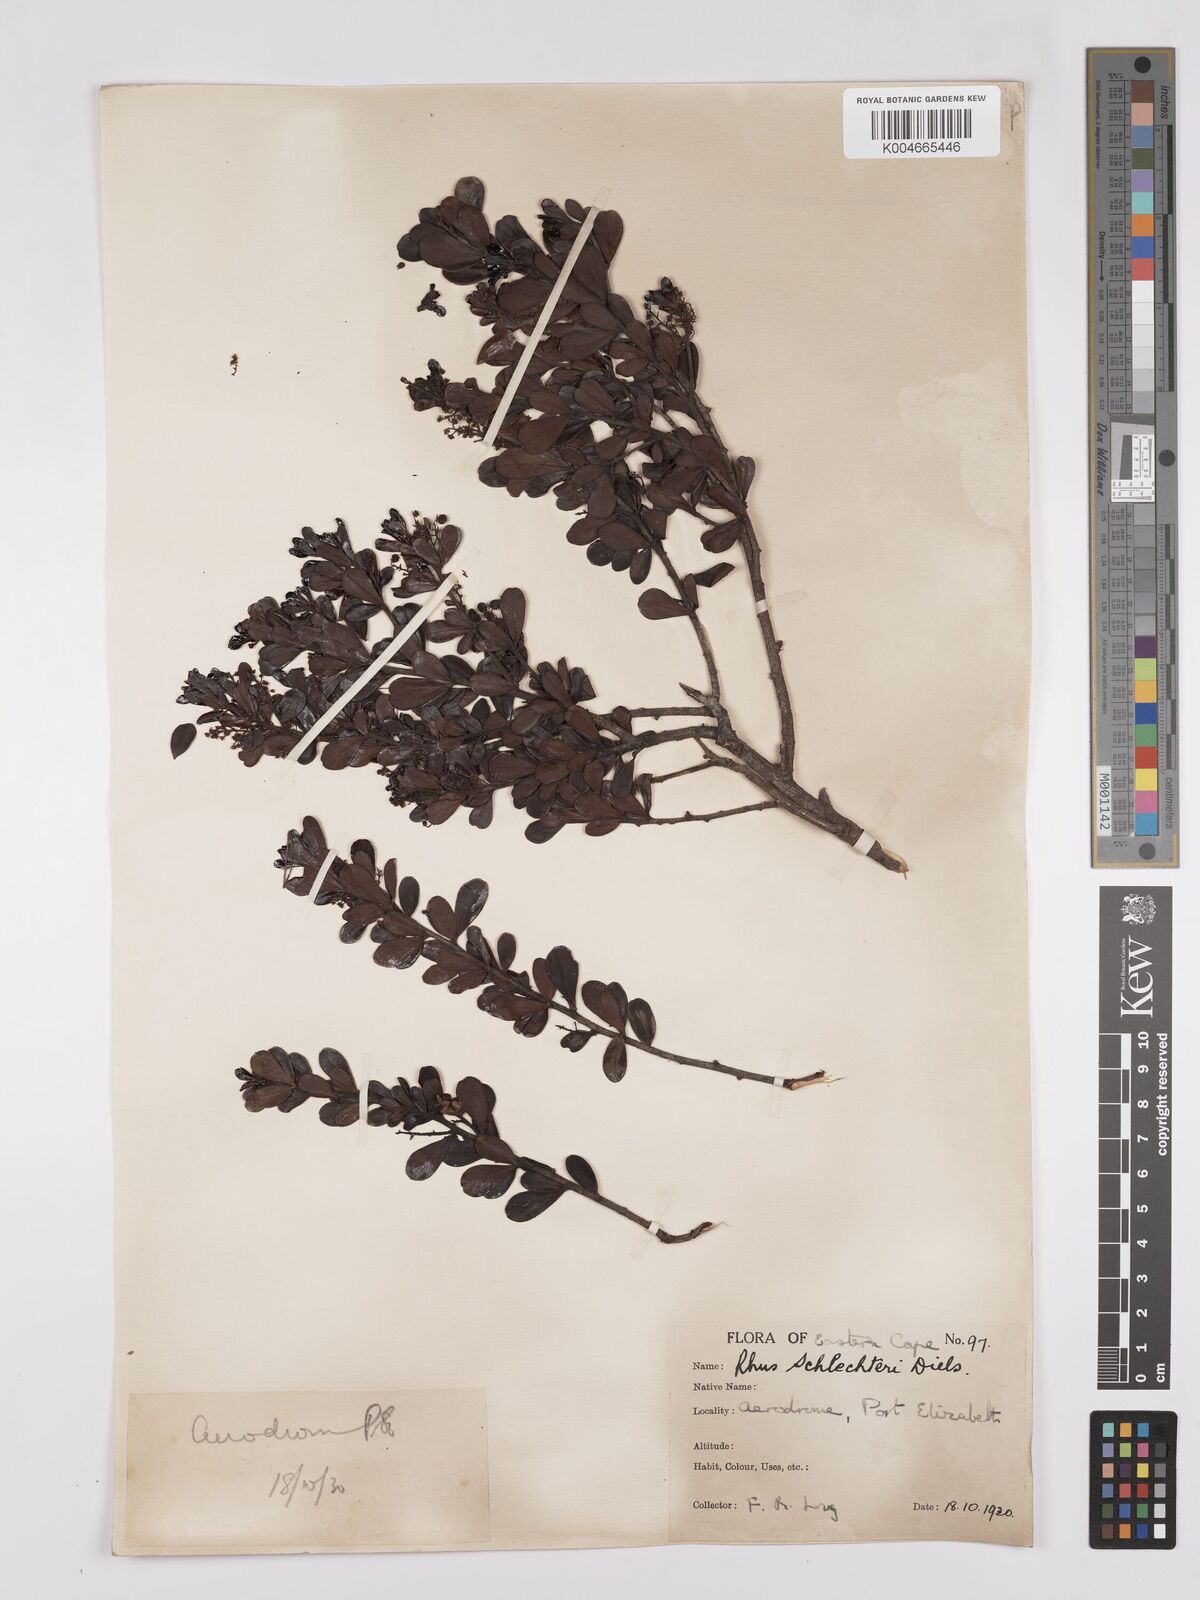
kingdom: Plantae
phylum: Tracheophyta
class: Magnoliopsida
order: Sapindales
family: Anacardiaceae
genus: Searsia
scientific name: Searsia lucida
